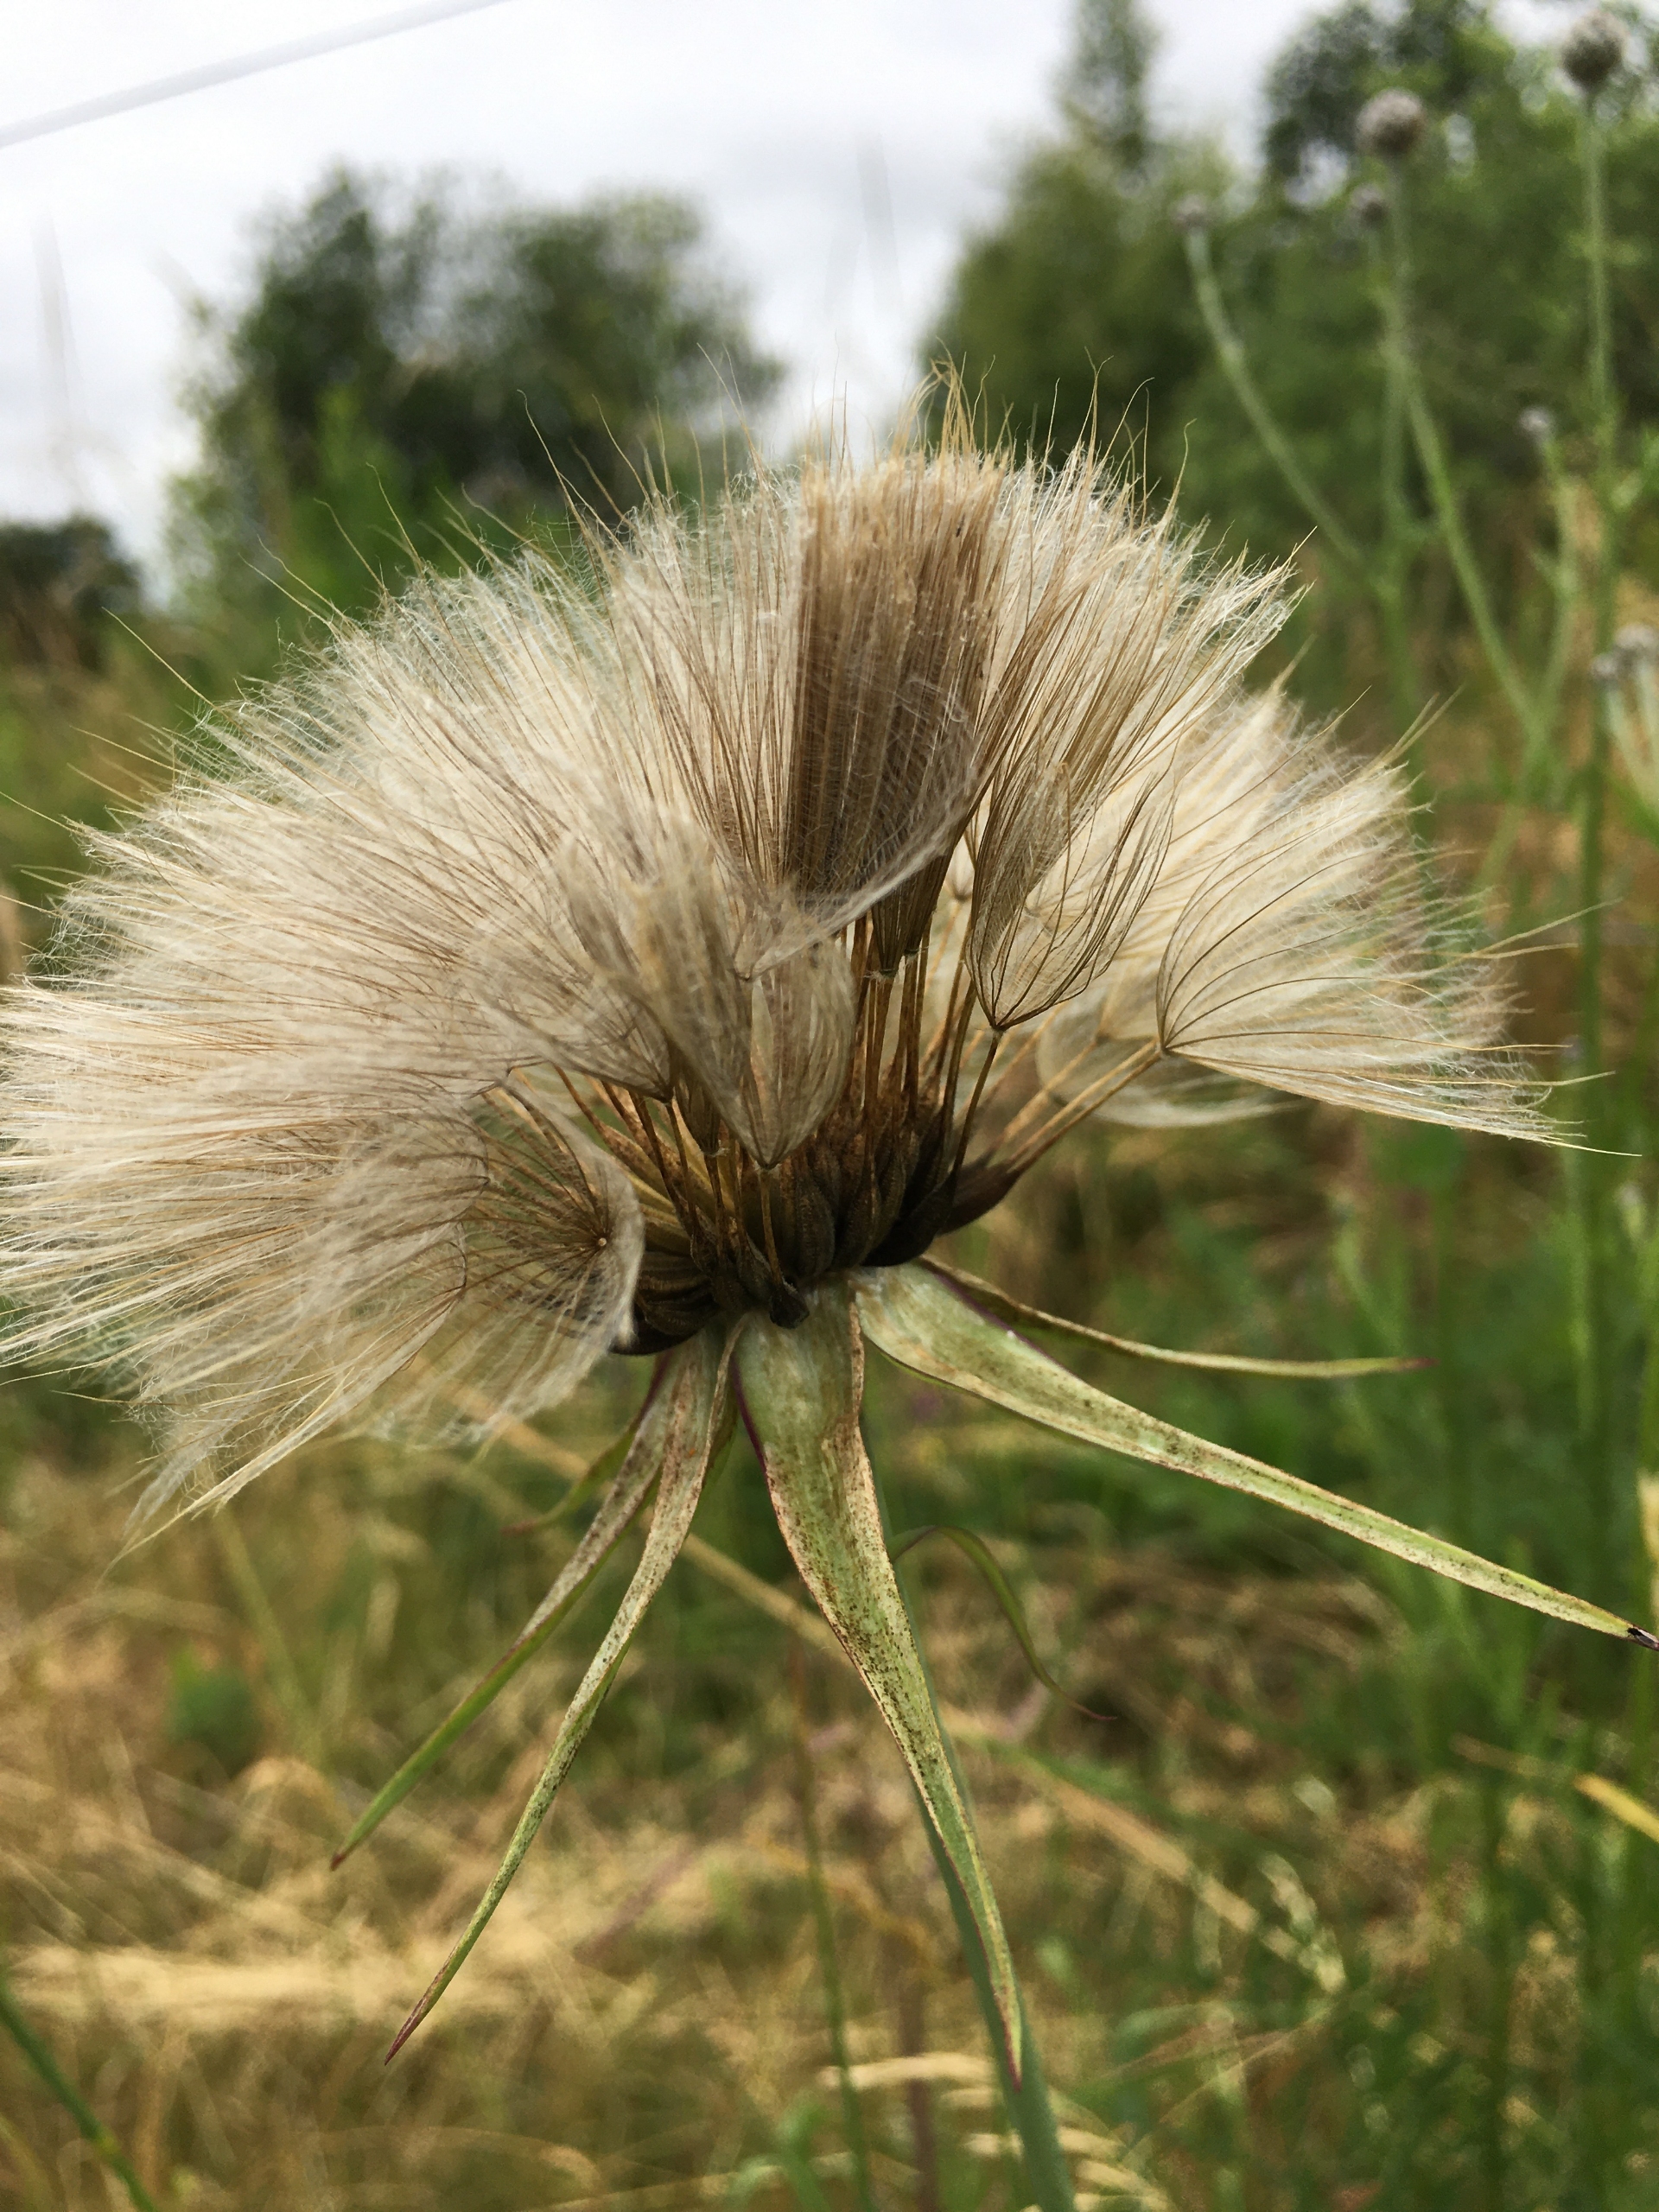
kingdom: Plantae
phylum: Tracheophyta
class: Magnoliopsida
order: Asterales
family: Asteraceae
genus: Tragopogon
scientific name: Tragopogon minor
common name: Småkronet gedeskæg
